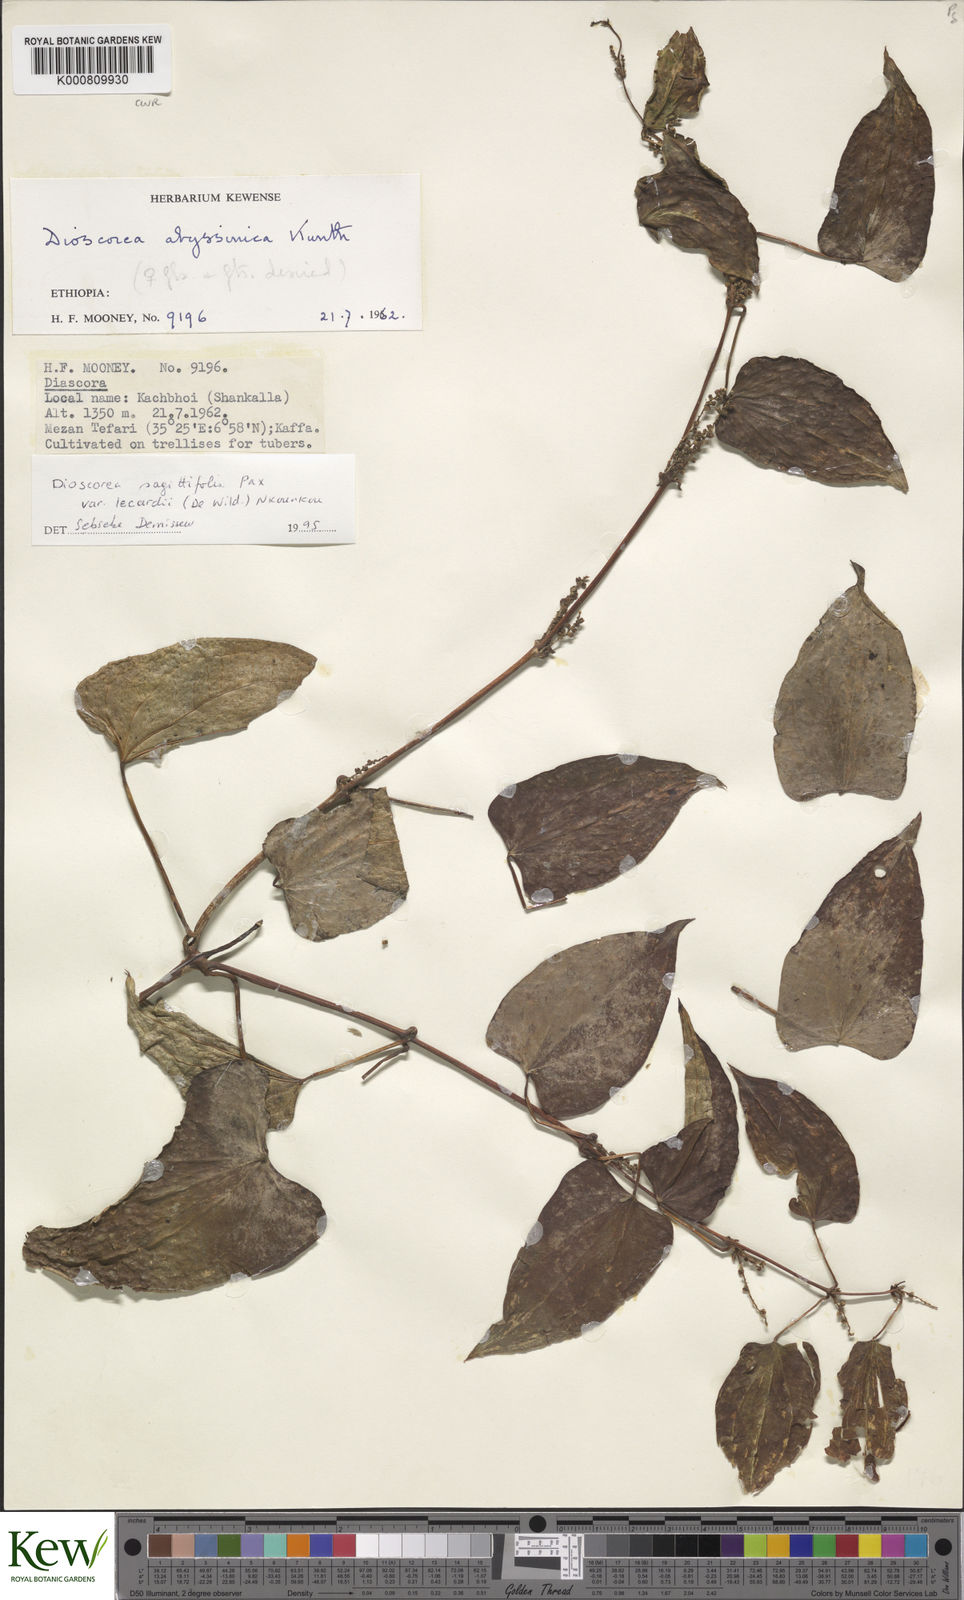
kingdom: Plantae
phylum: Tracheophyta
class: Liliopsida
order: Dioscoreales
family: Dioscoreaceae
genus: Dioscorea
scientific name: Dioscorea sagittifolia
